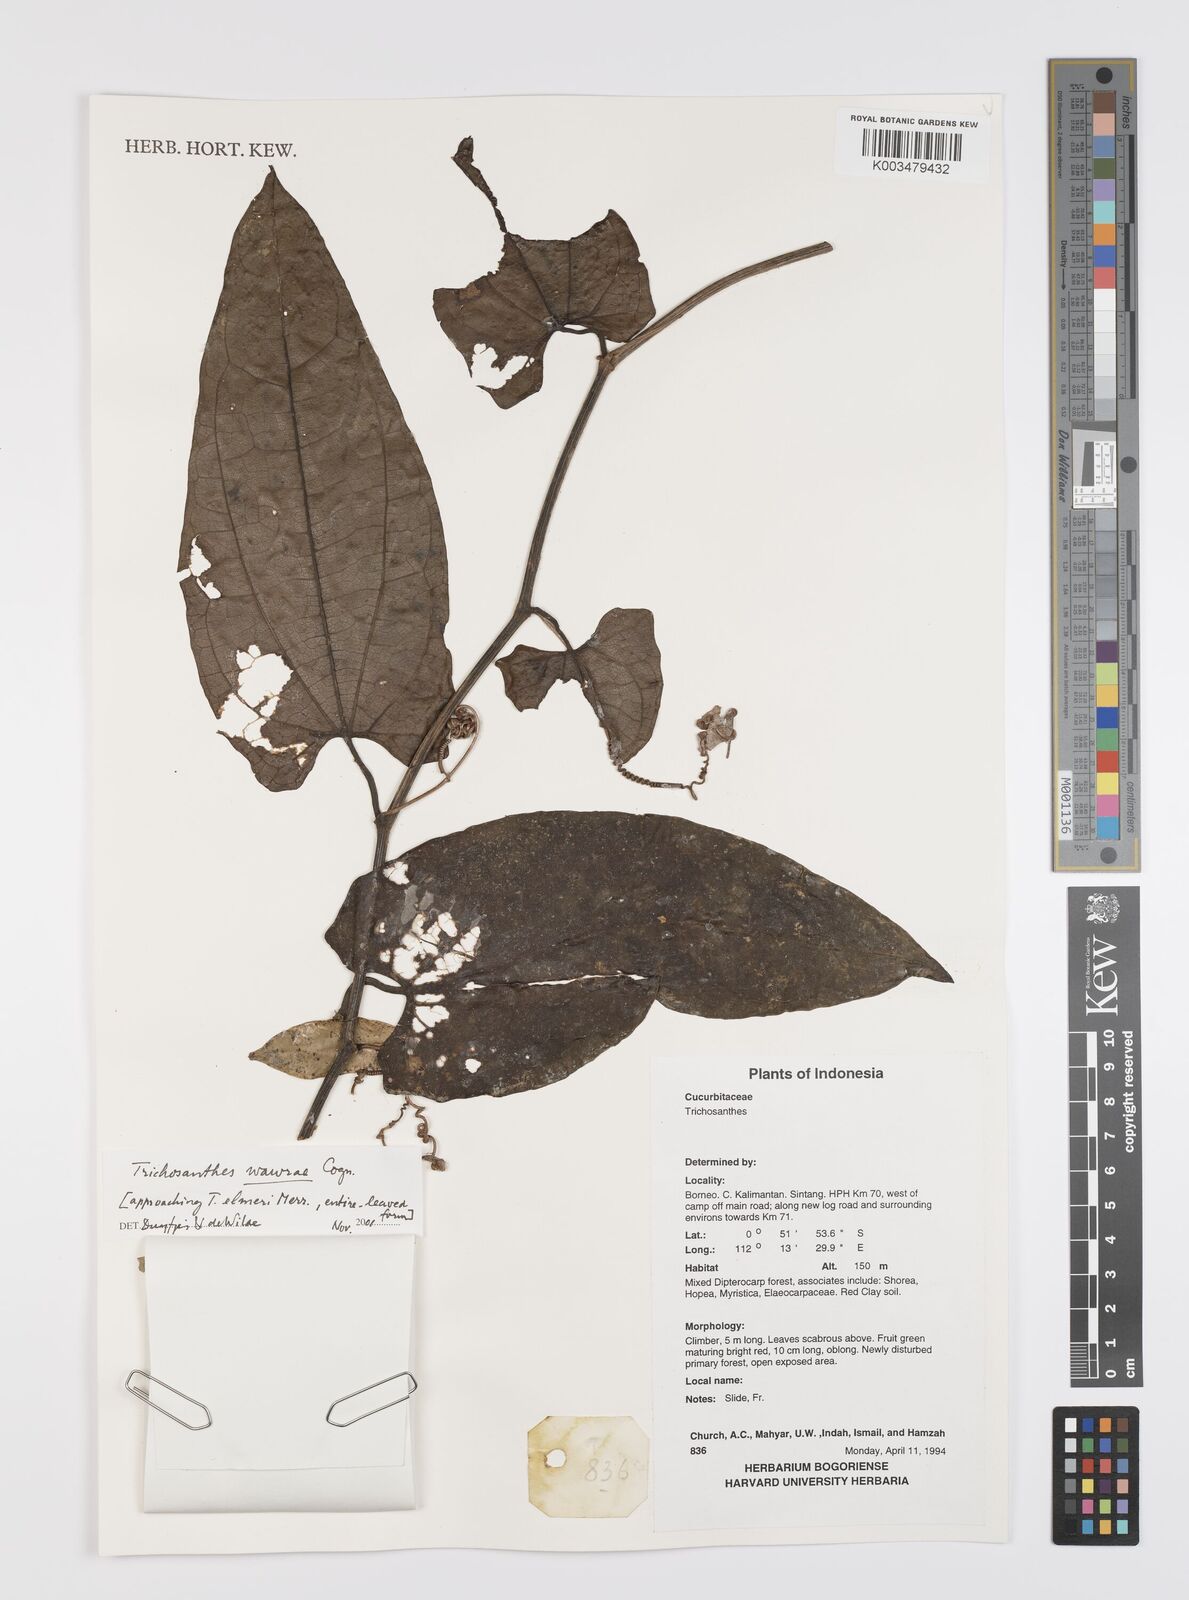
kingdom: Plantae
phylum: Tracheophyta
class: Magnoliopsida
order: Cucurbitales
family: Cucurbitaceae
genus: Trichosanthes
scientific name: Trichosanthes wawrae
